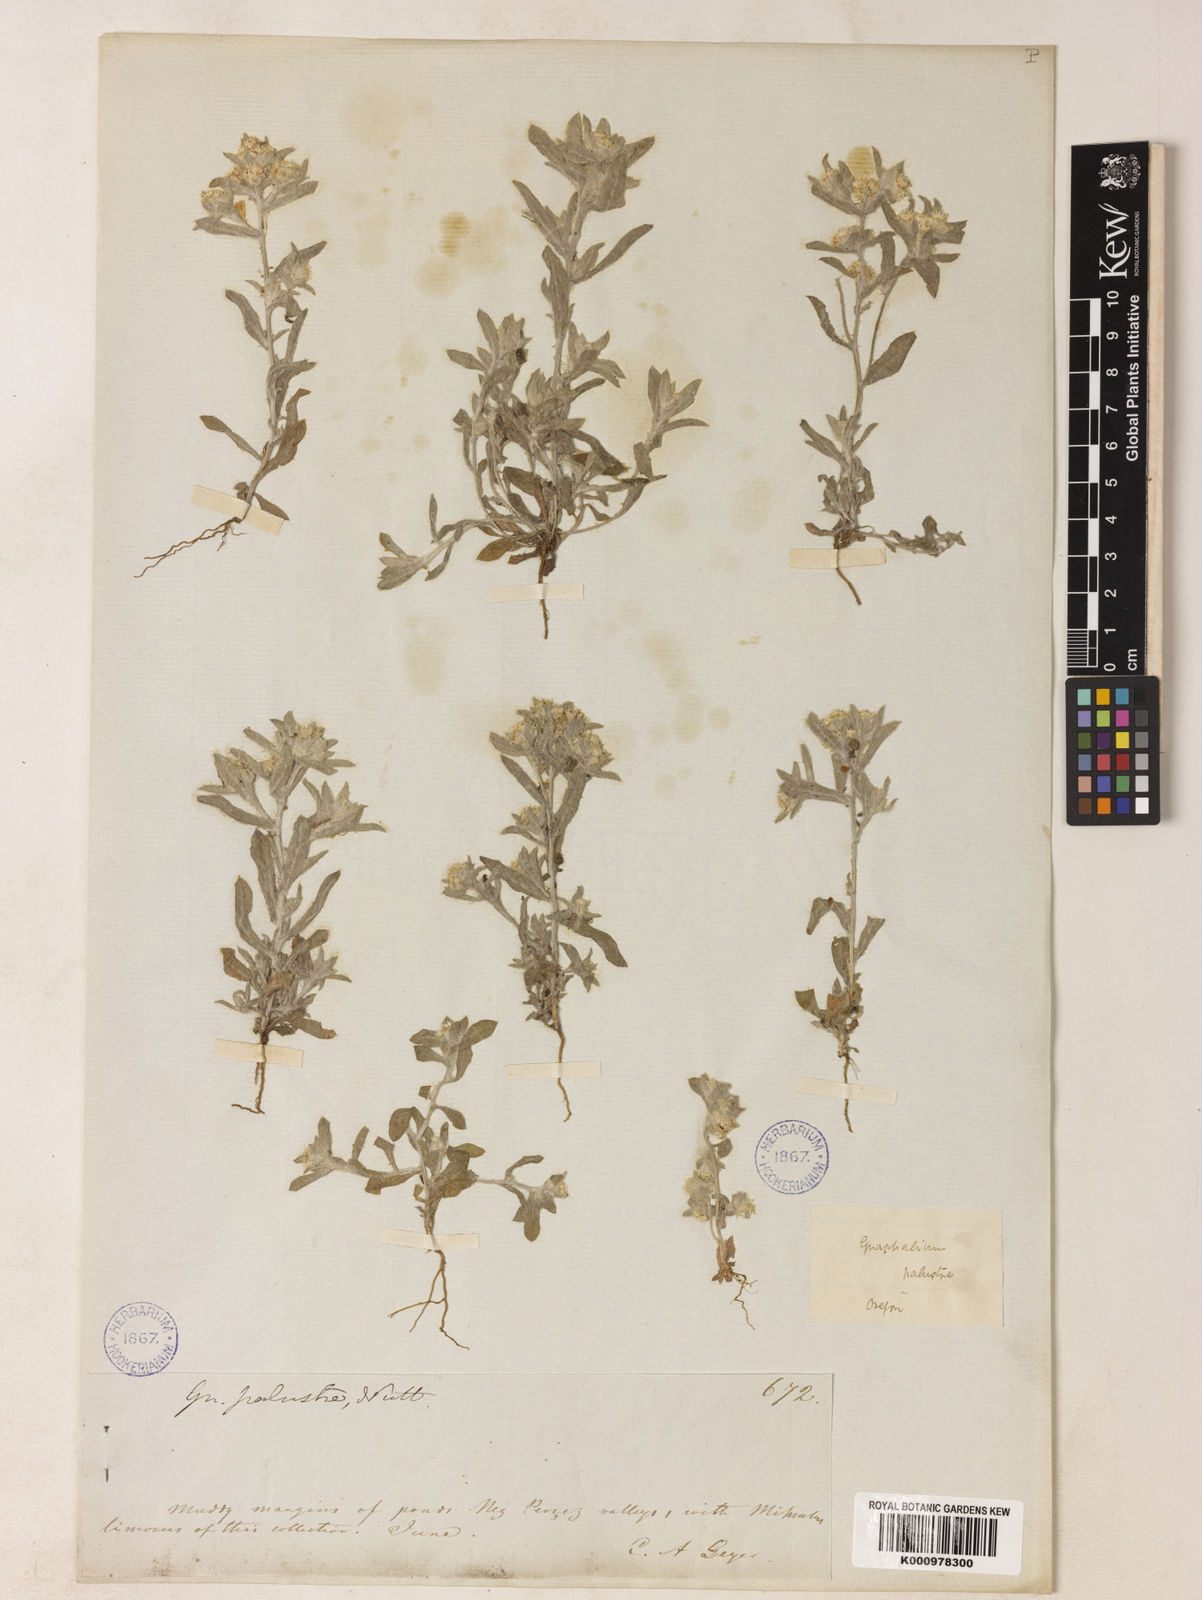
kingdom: Plantae
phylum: Tracheophyta
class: Magnoliopsida
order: Asterales
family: Asteraceae
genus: Gnaphalium
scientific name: Gnaphalium palustre
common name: Western marsh cudweed
